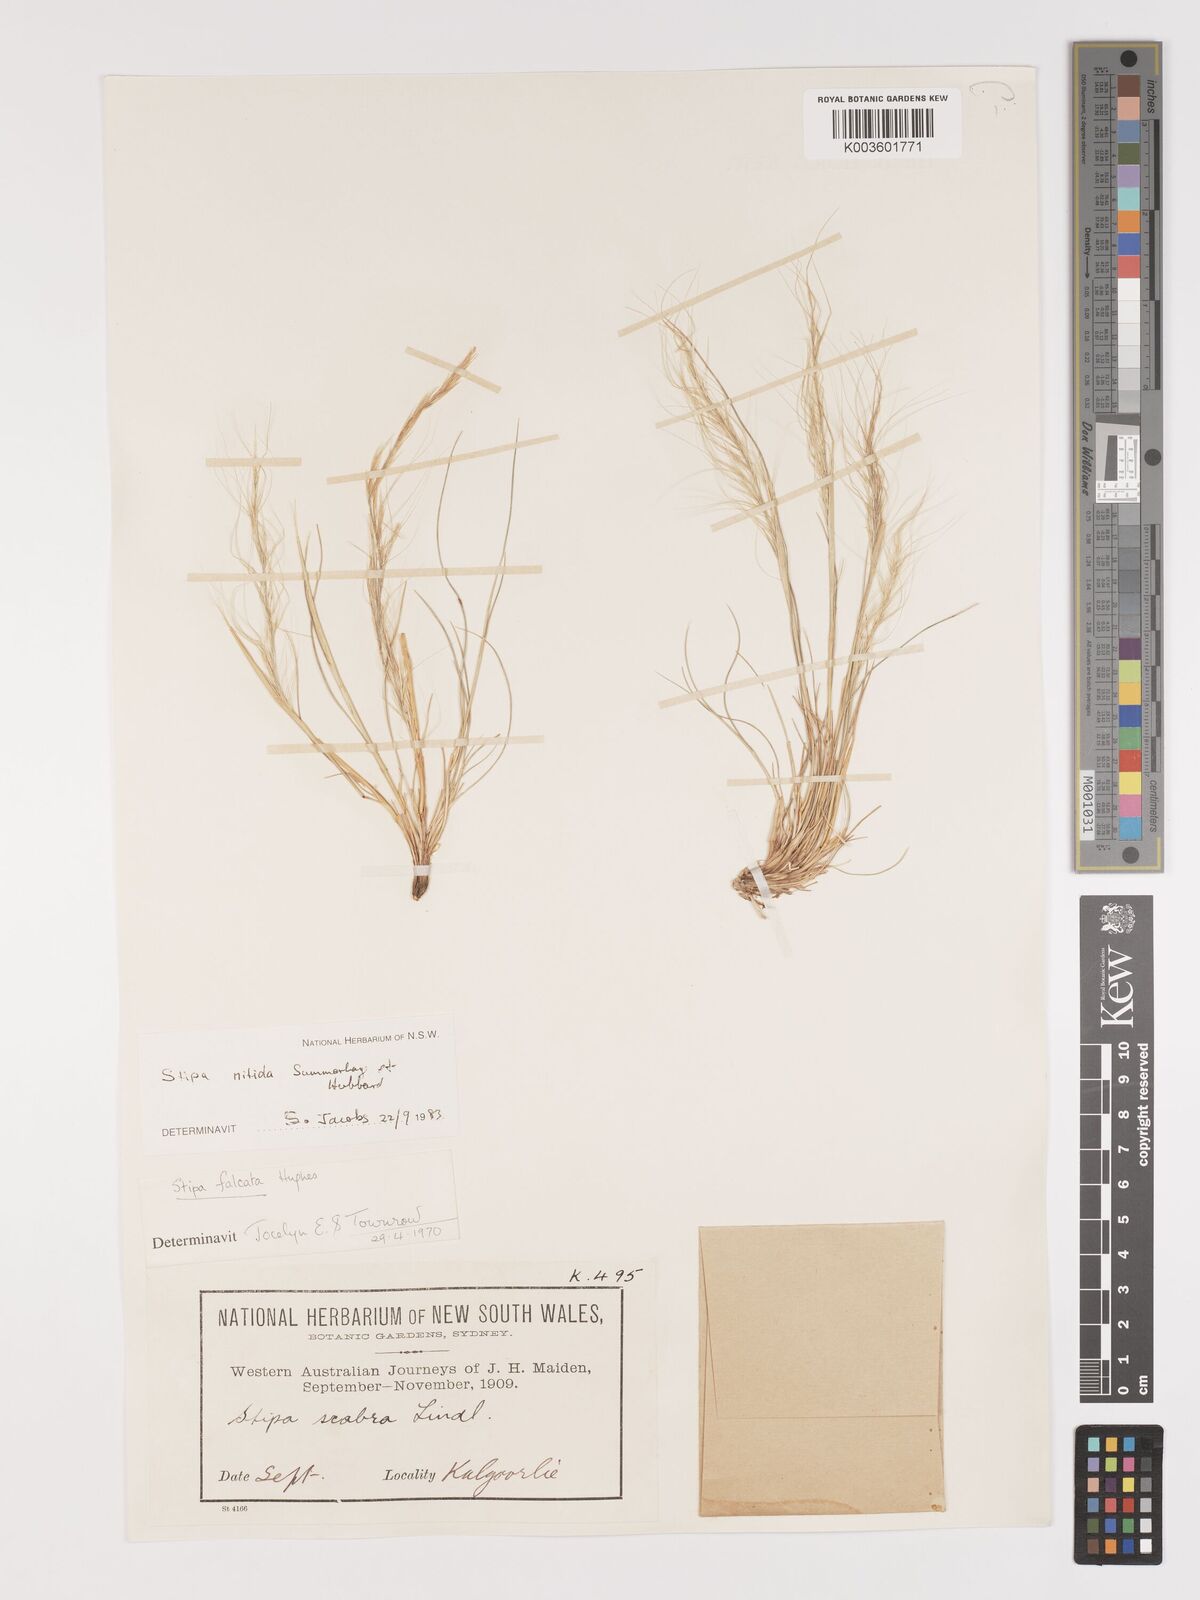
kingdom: Plantae
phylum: Tracheophyta
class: Liliopsida
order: Poales
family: Poaceae
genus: Austrostipa
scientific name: Austrostipa nitida
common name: Balcarra grass
